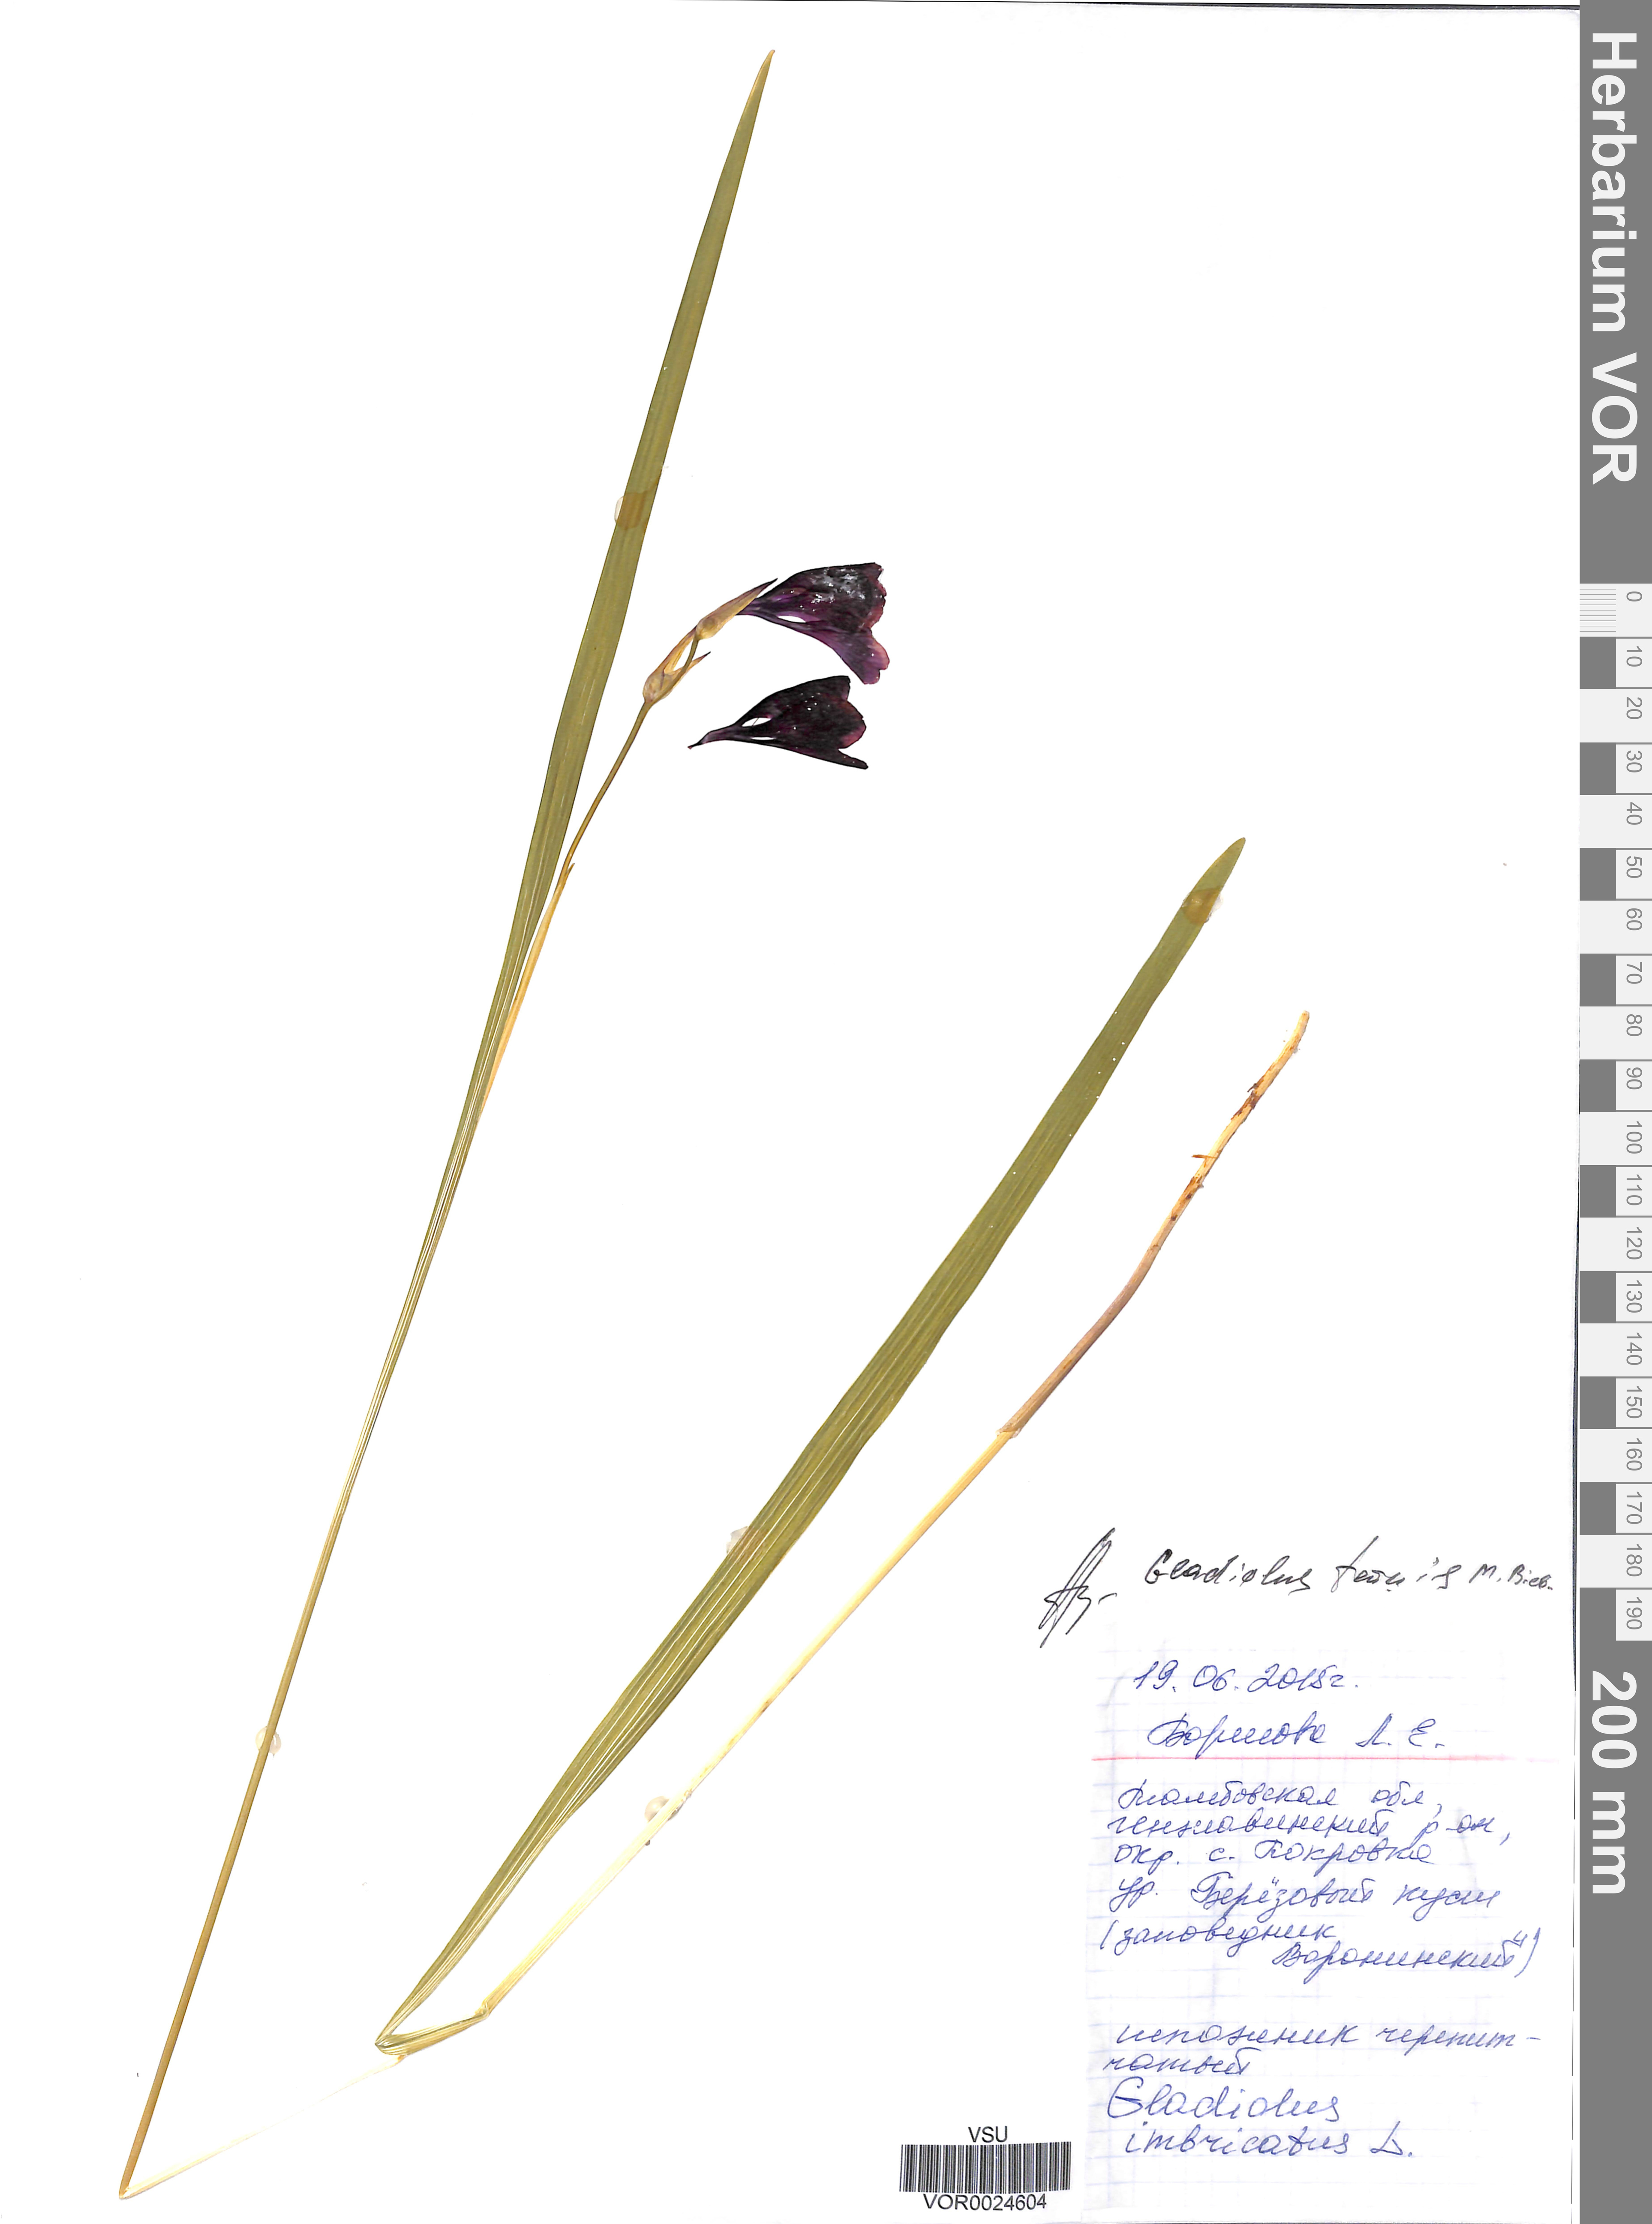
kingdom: Plantae
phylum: Tracheophyta
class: Liliopsida
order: Asparagales
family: Iridaceae
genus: Gladiolus
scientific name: Gladiolus tenuis
